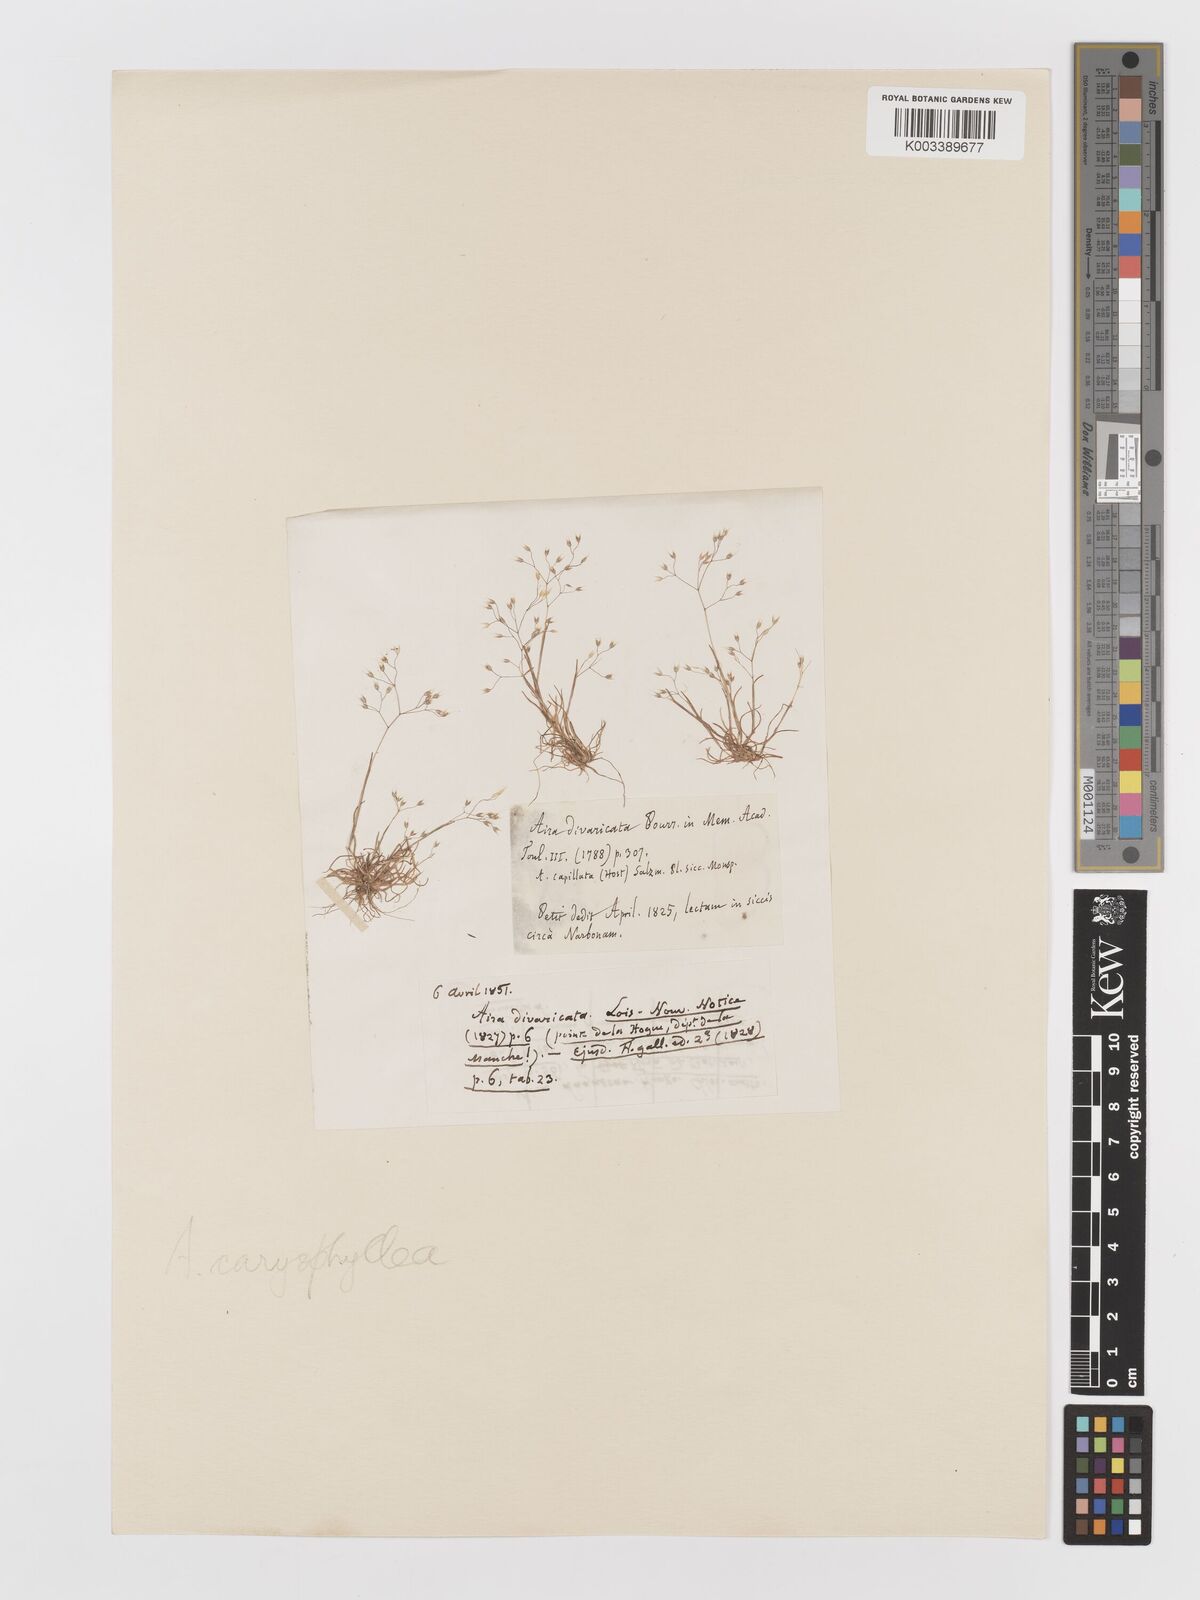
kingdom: Plantae
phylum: Tracheophyta
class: Liliopsida
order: Poales
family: Poaceae
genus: Aira
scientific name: Aira caryophyllea
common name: Silver hairgrass
